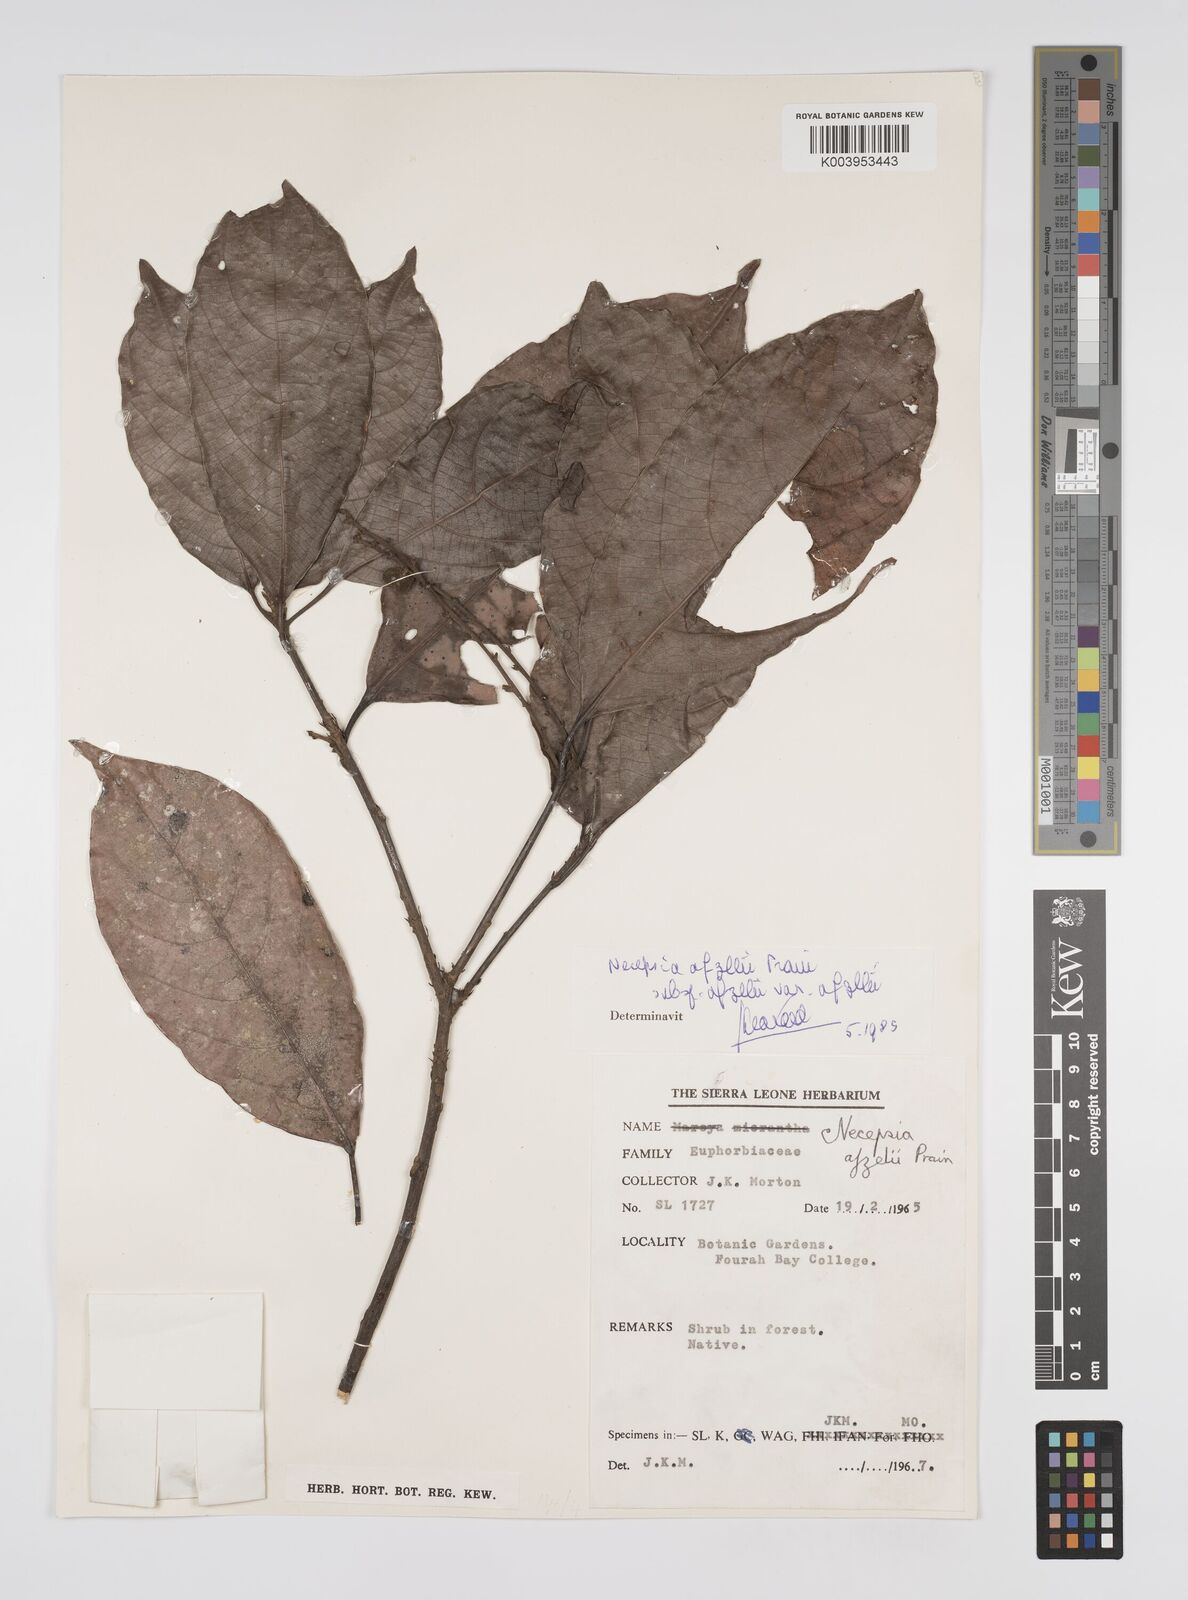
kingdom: Plantae
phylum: Tracheophyta
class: Magnoliopsida
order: Malpighiales
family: Euphorbiaceae
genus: Necepsia
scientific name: Necepsia afzelii
